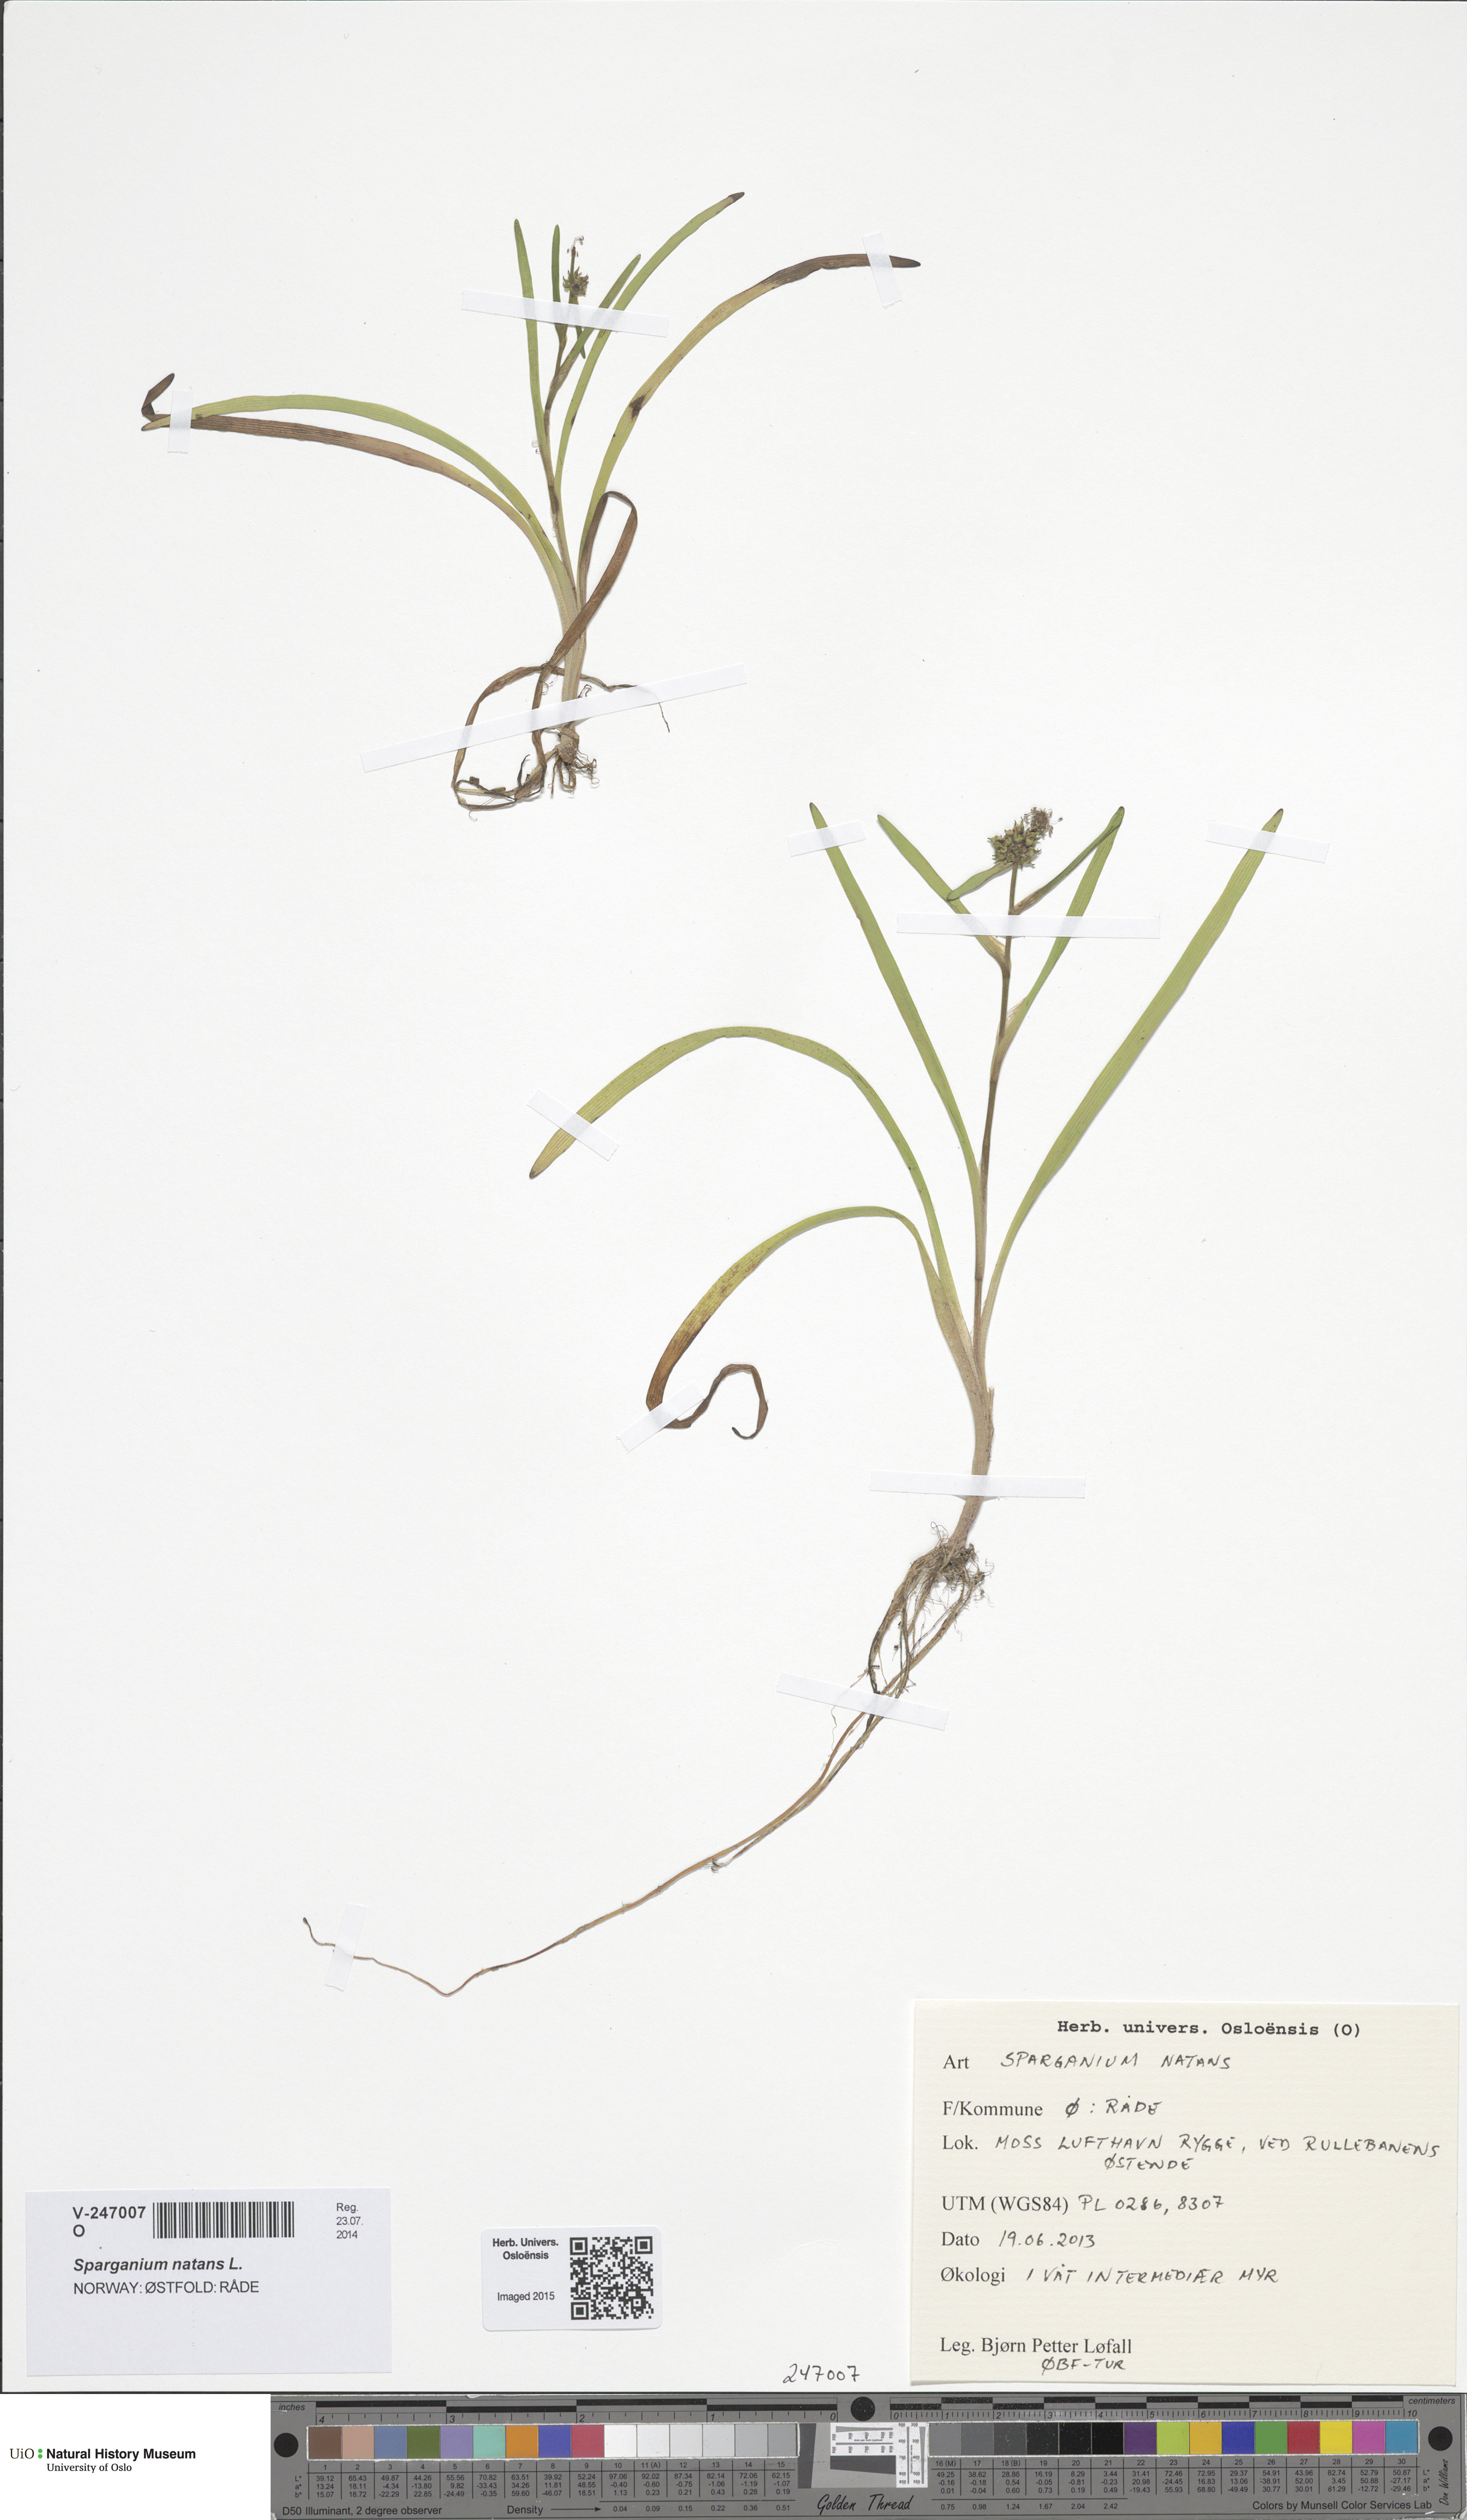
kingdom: Plantae
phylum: Tracheophyta
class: Liliopsida
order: Poales
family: Typhaceae
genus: Sparganium
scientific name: Sparganium natans
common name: Least bur-reed
